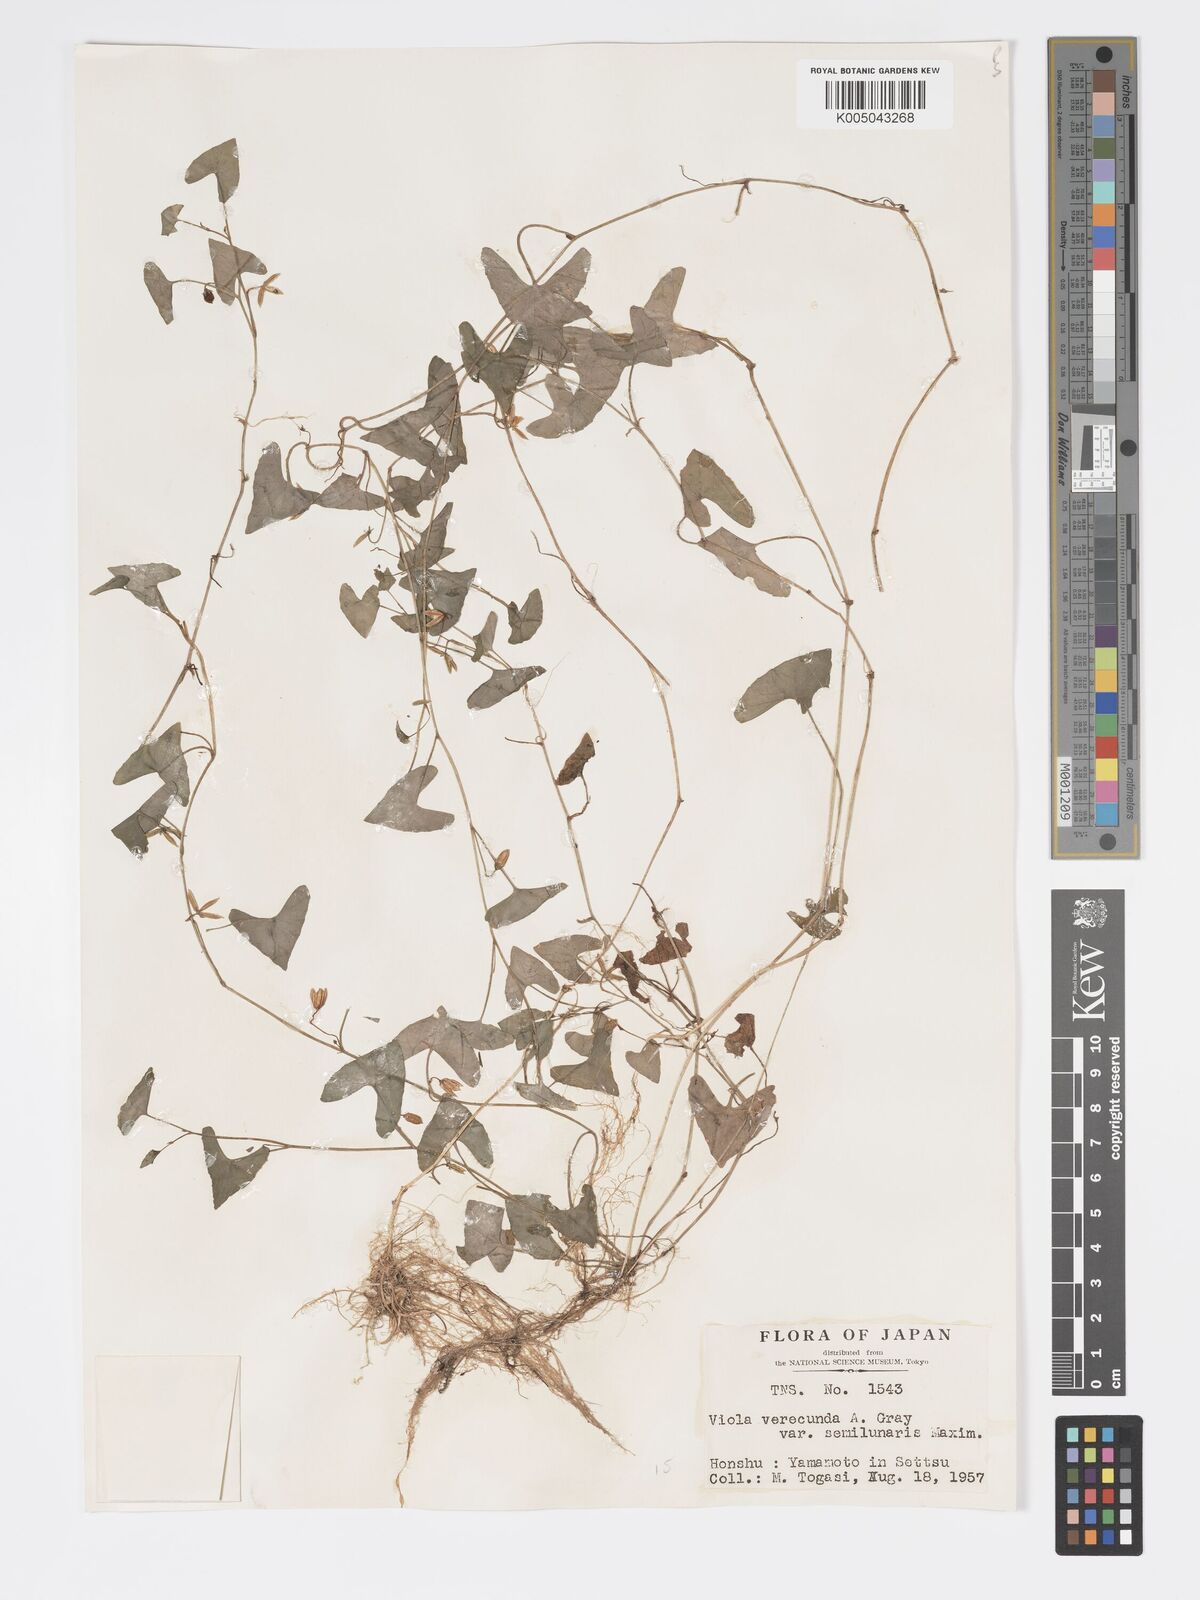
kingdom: Plantae
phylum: Tracheophyta
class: Magnoliopsida
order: Malpighiales
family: Violaceae
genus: Viola
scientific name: Viola hamiltoniana
